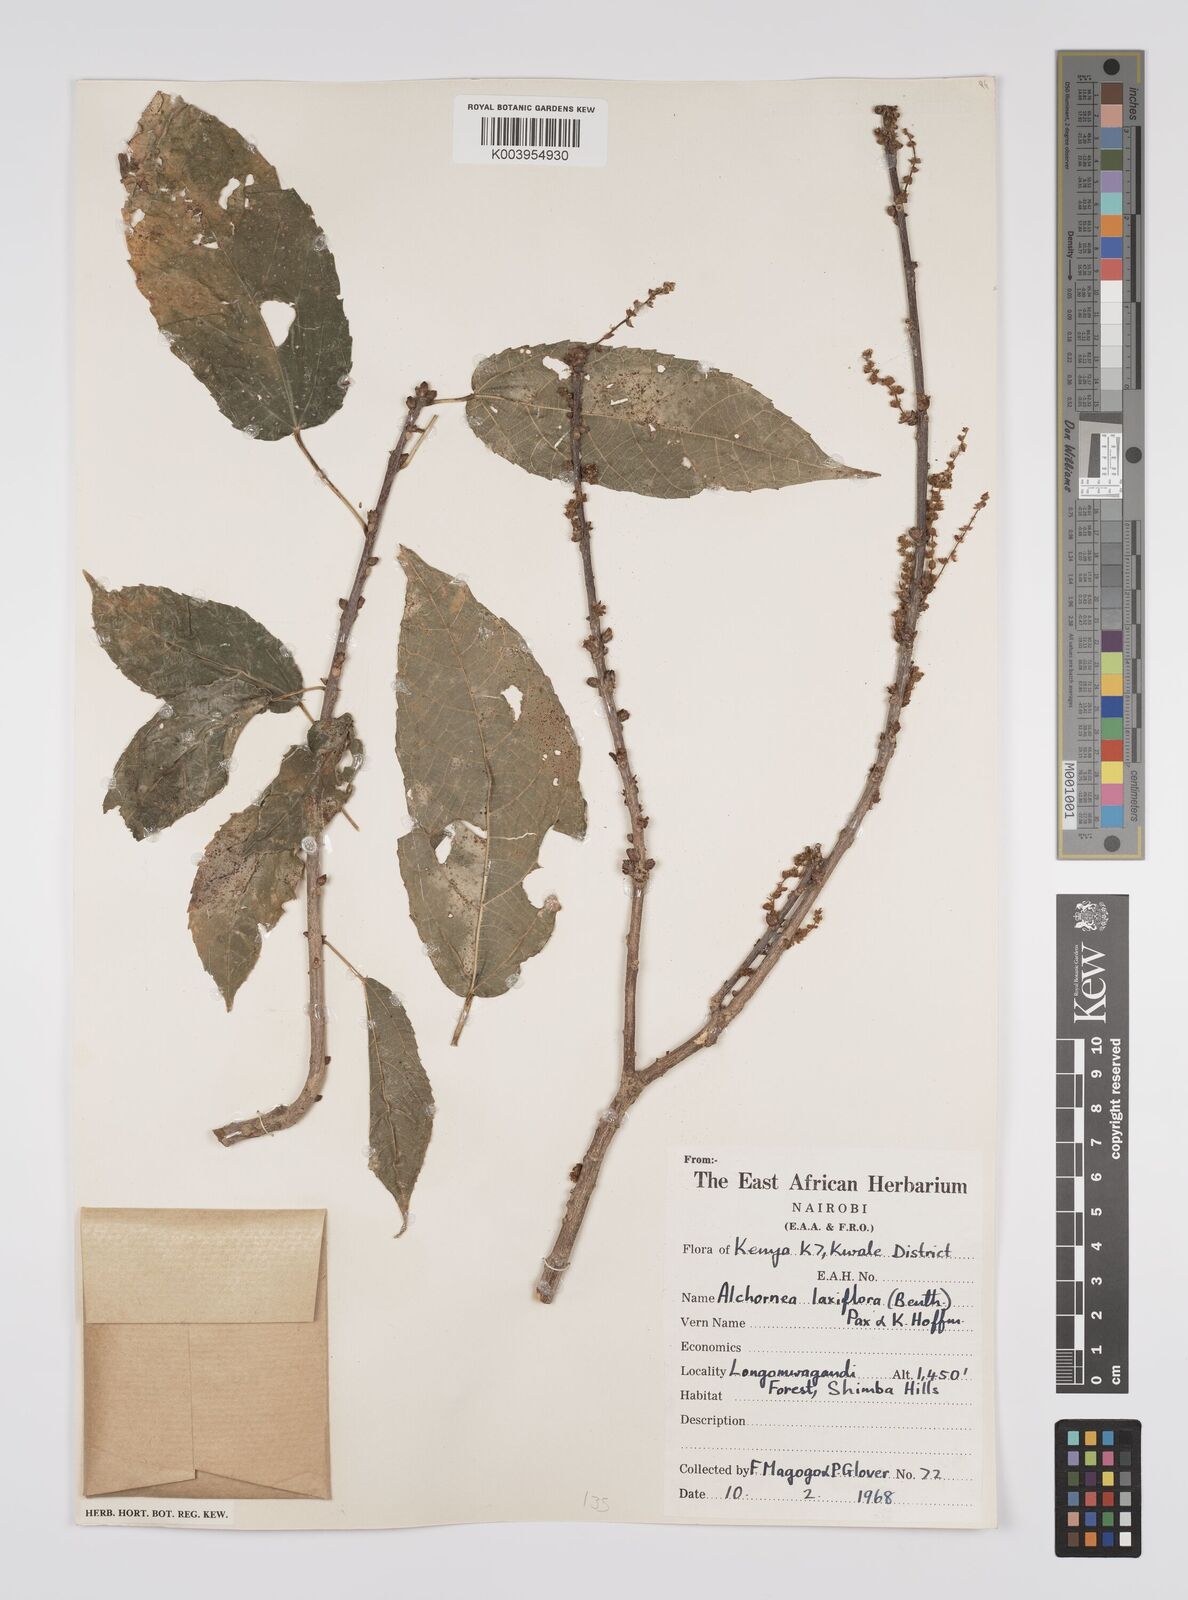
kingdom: Plantae
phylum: Tracheophyta
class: Magnoliopsida
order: Malpighiales
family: Euphorbiaceae
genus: Alchornea
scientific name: Alchornea laxiflora
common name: Lowveld bead-string
